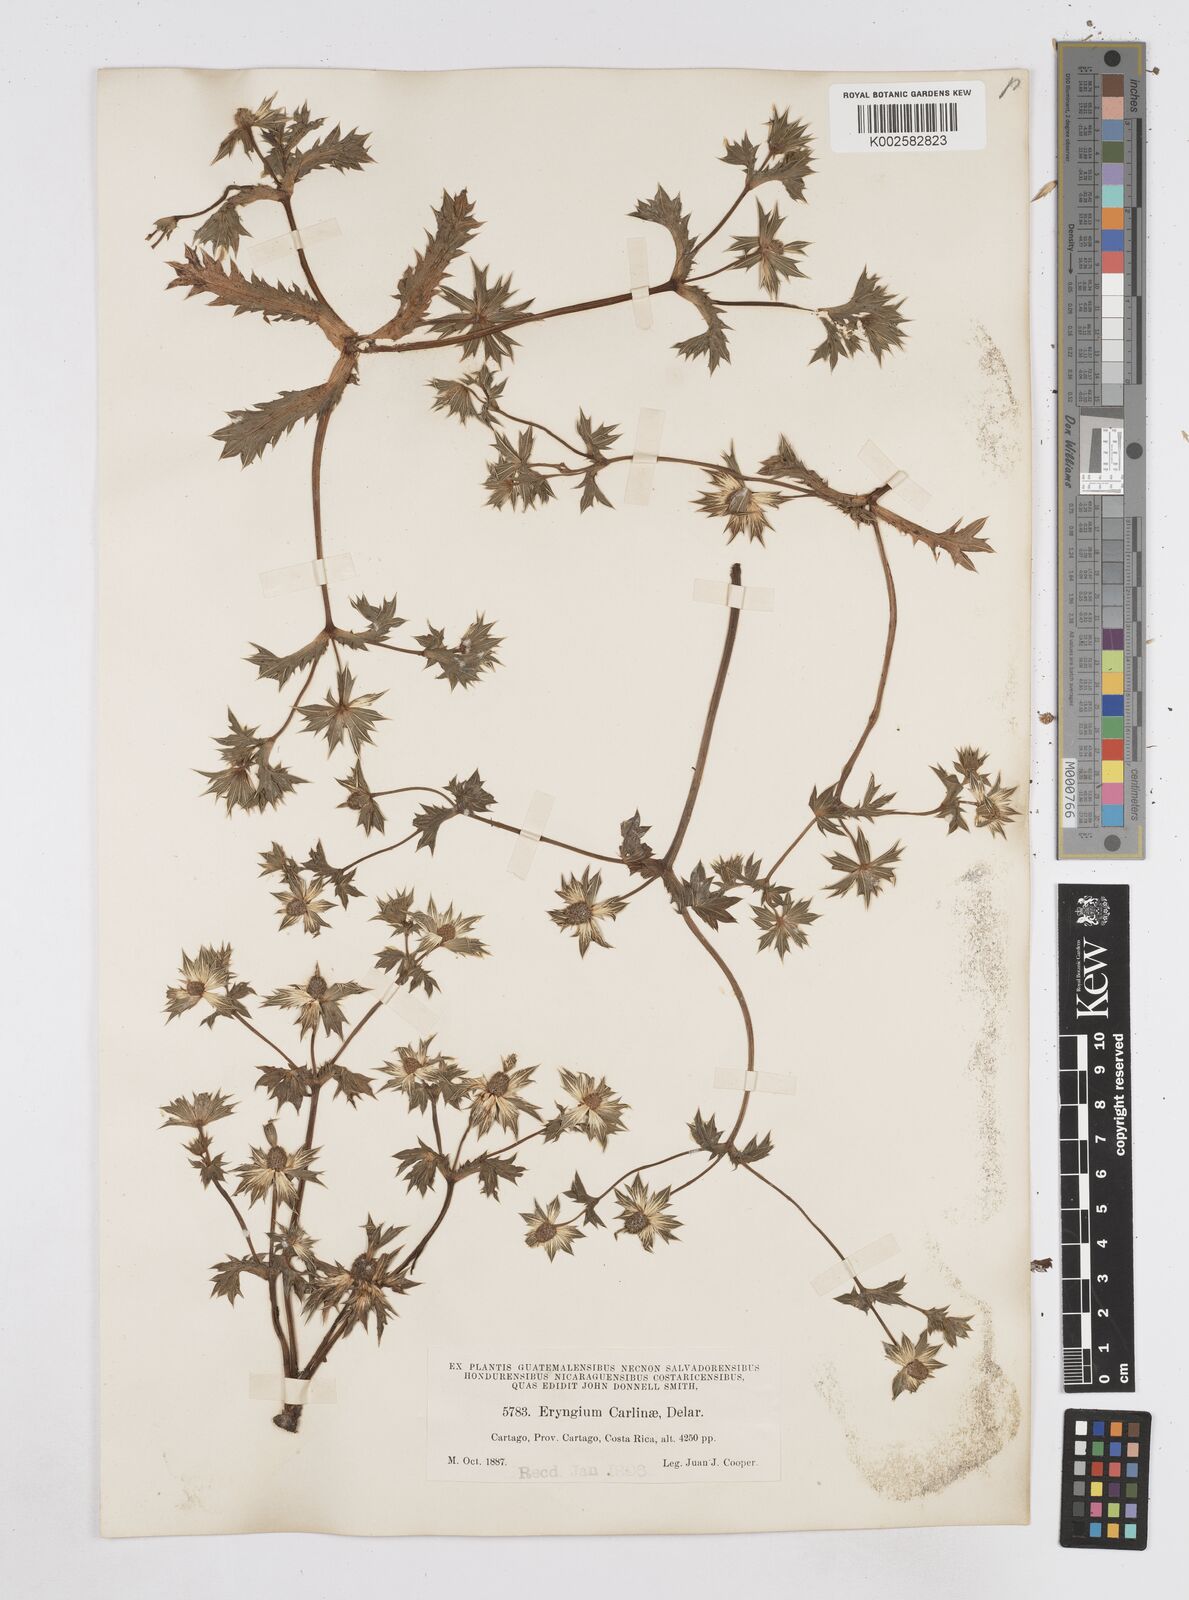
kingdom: Plantae
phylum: Tracheophyta
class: Magnoliopsida
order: Apiales
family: Apiaceae
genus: Eryngium
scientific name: Eryngium carlinae
